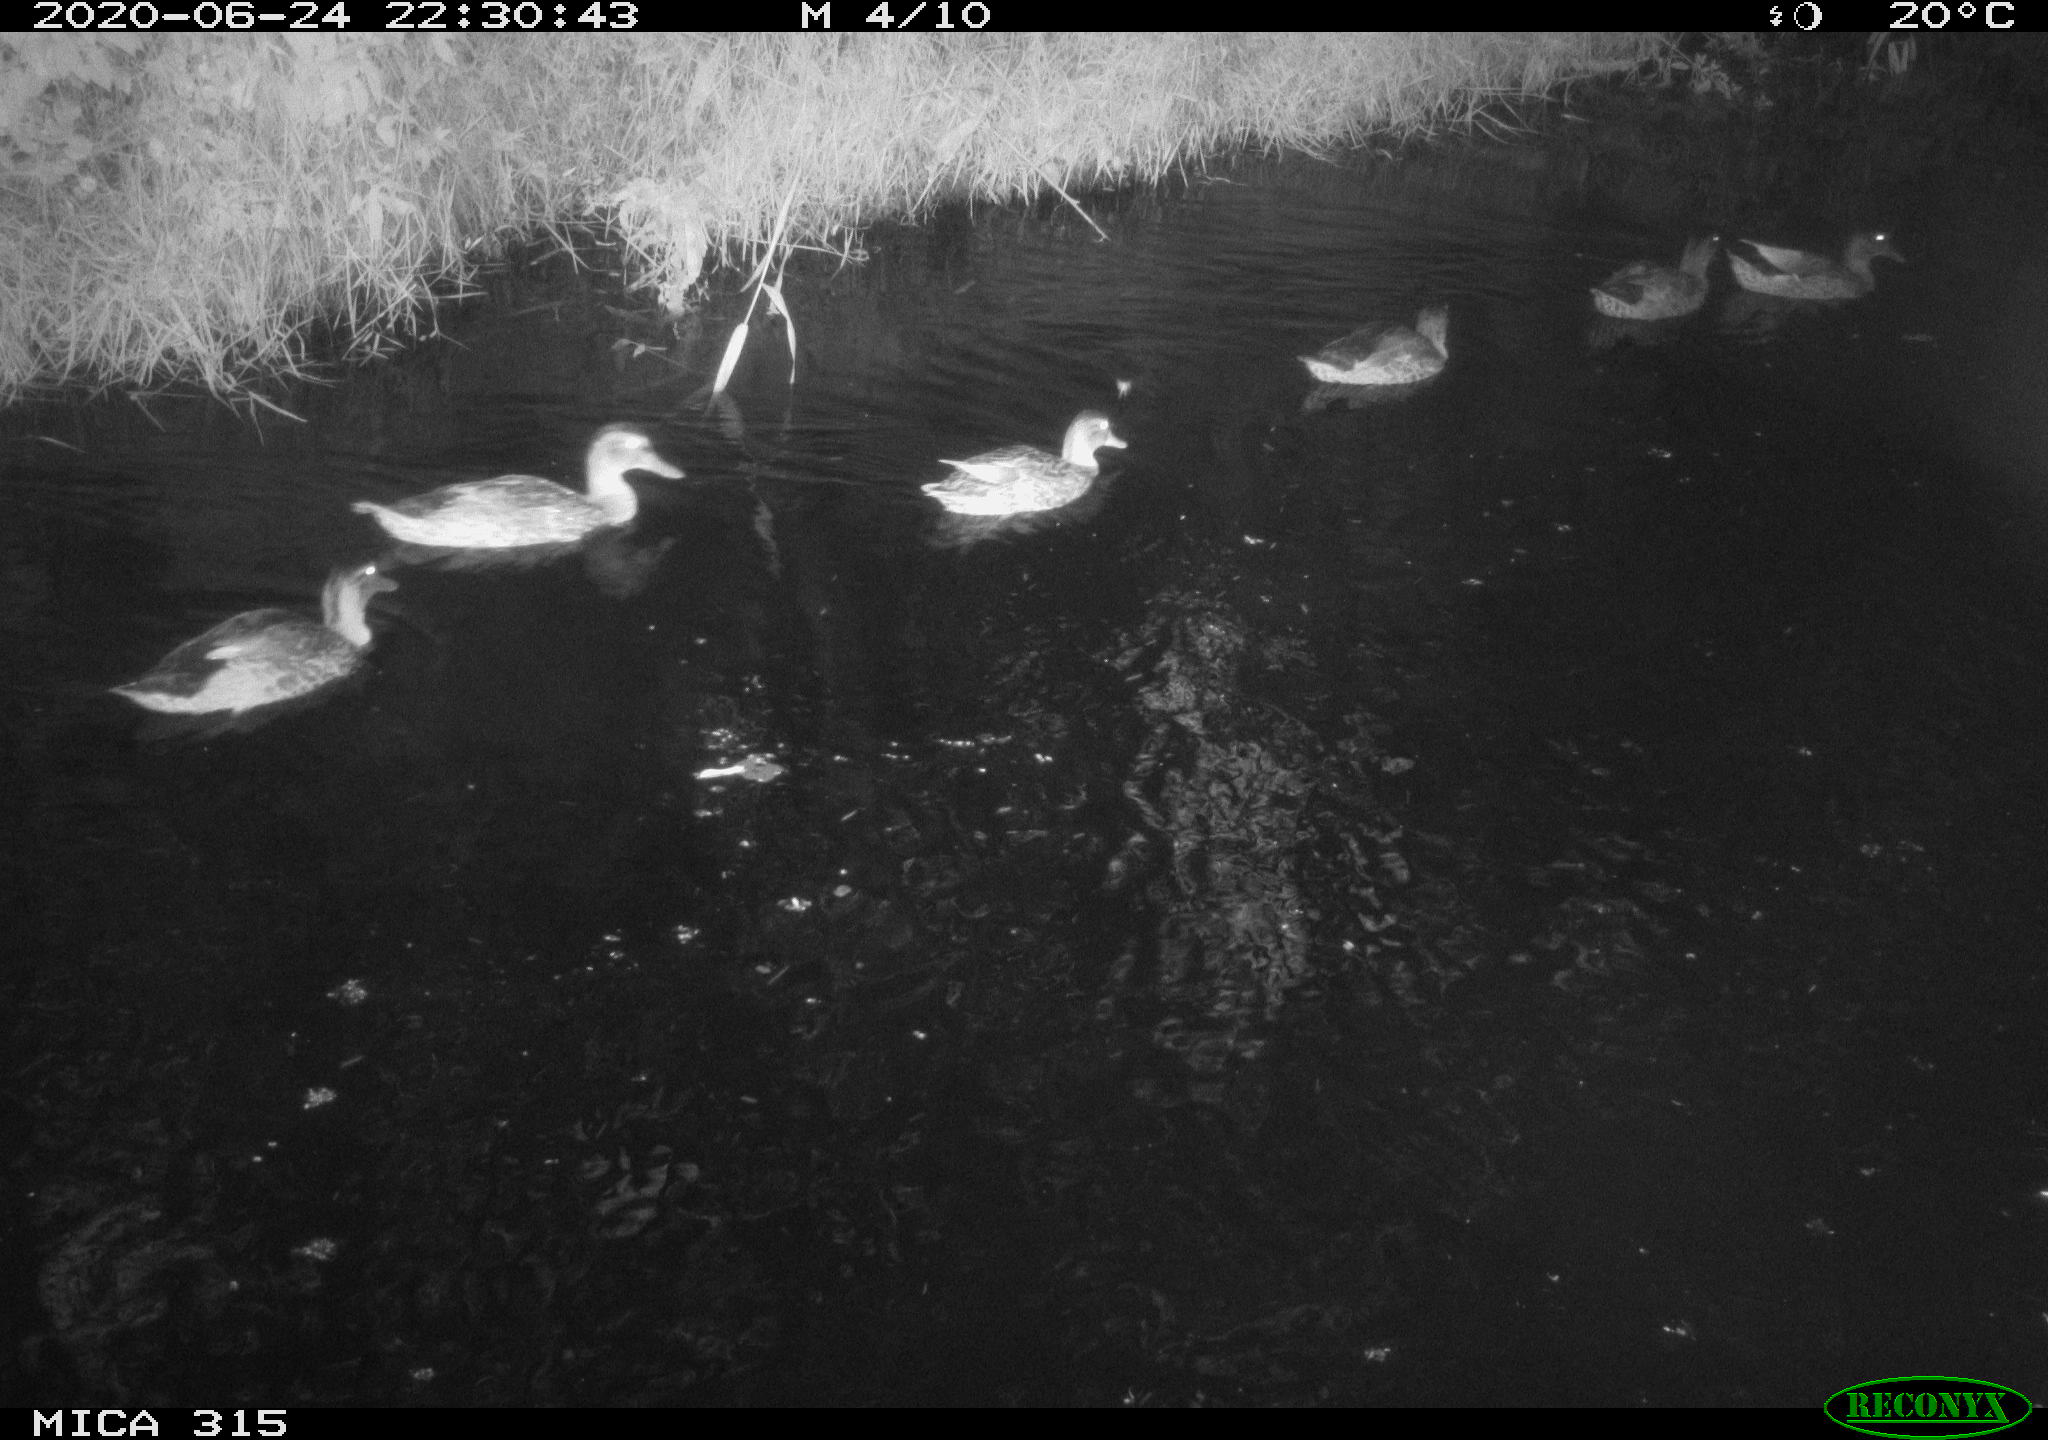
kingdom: Animalia
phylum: Chordata
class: Aves
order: Anseriformes
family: Anatidae
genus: Anas
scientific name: Anas platyrhynchos
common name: Mallard
